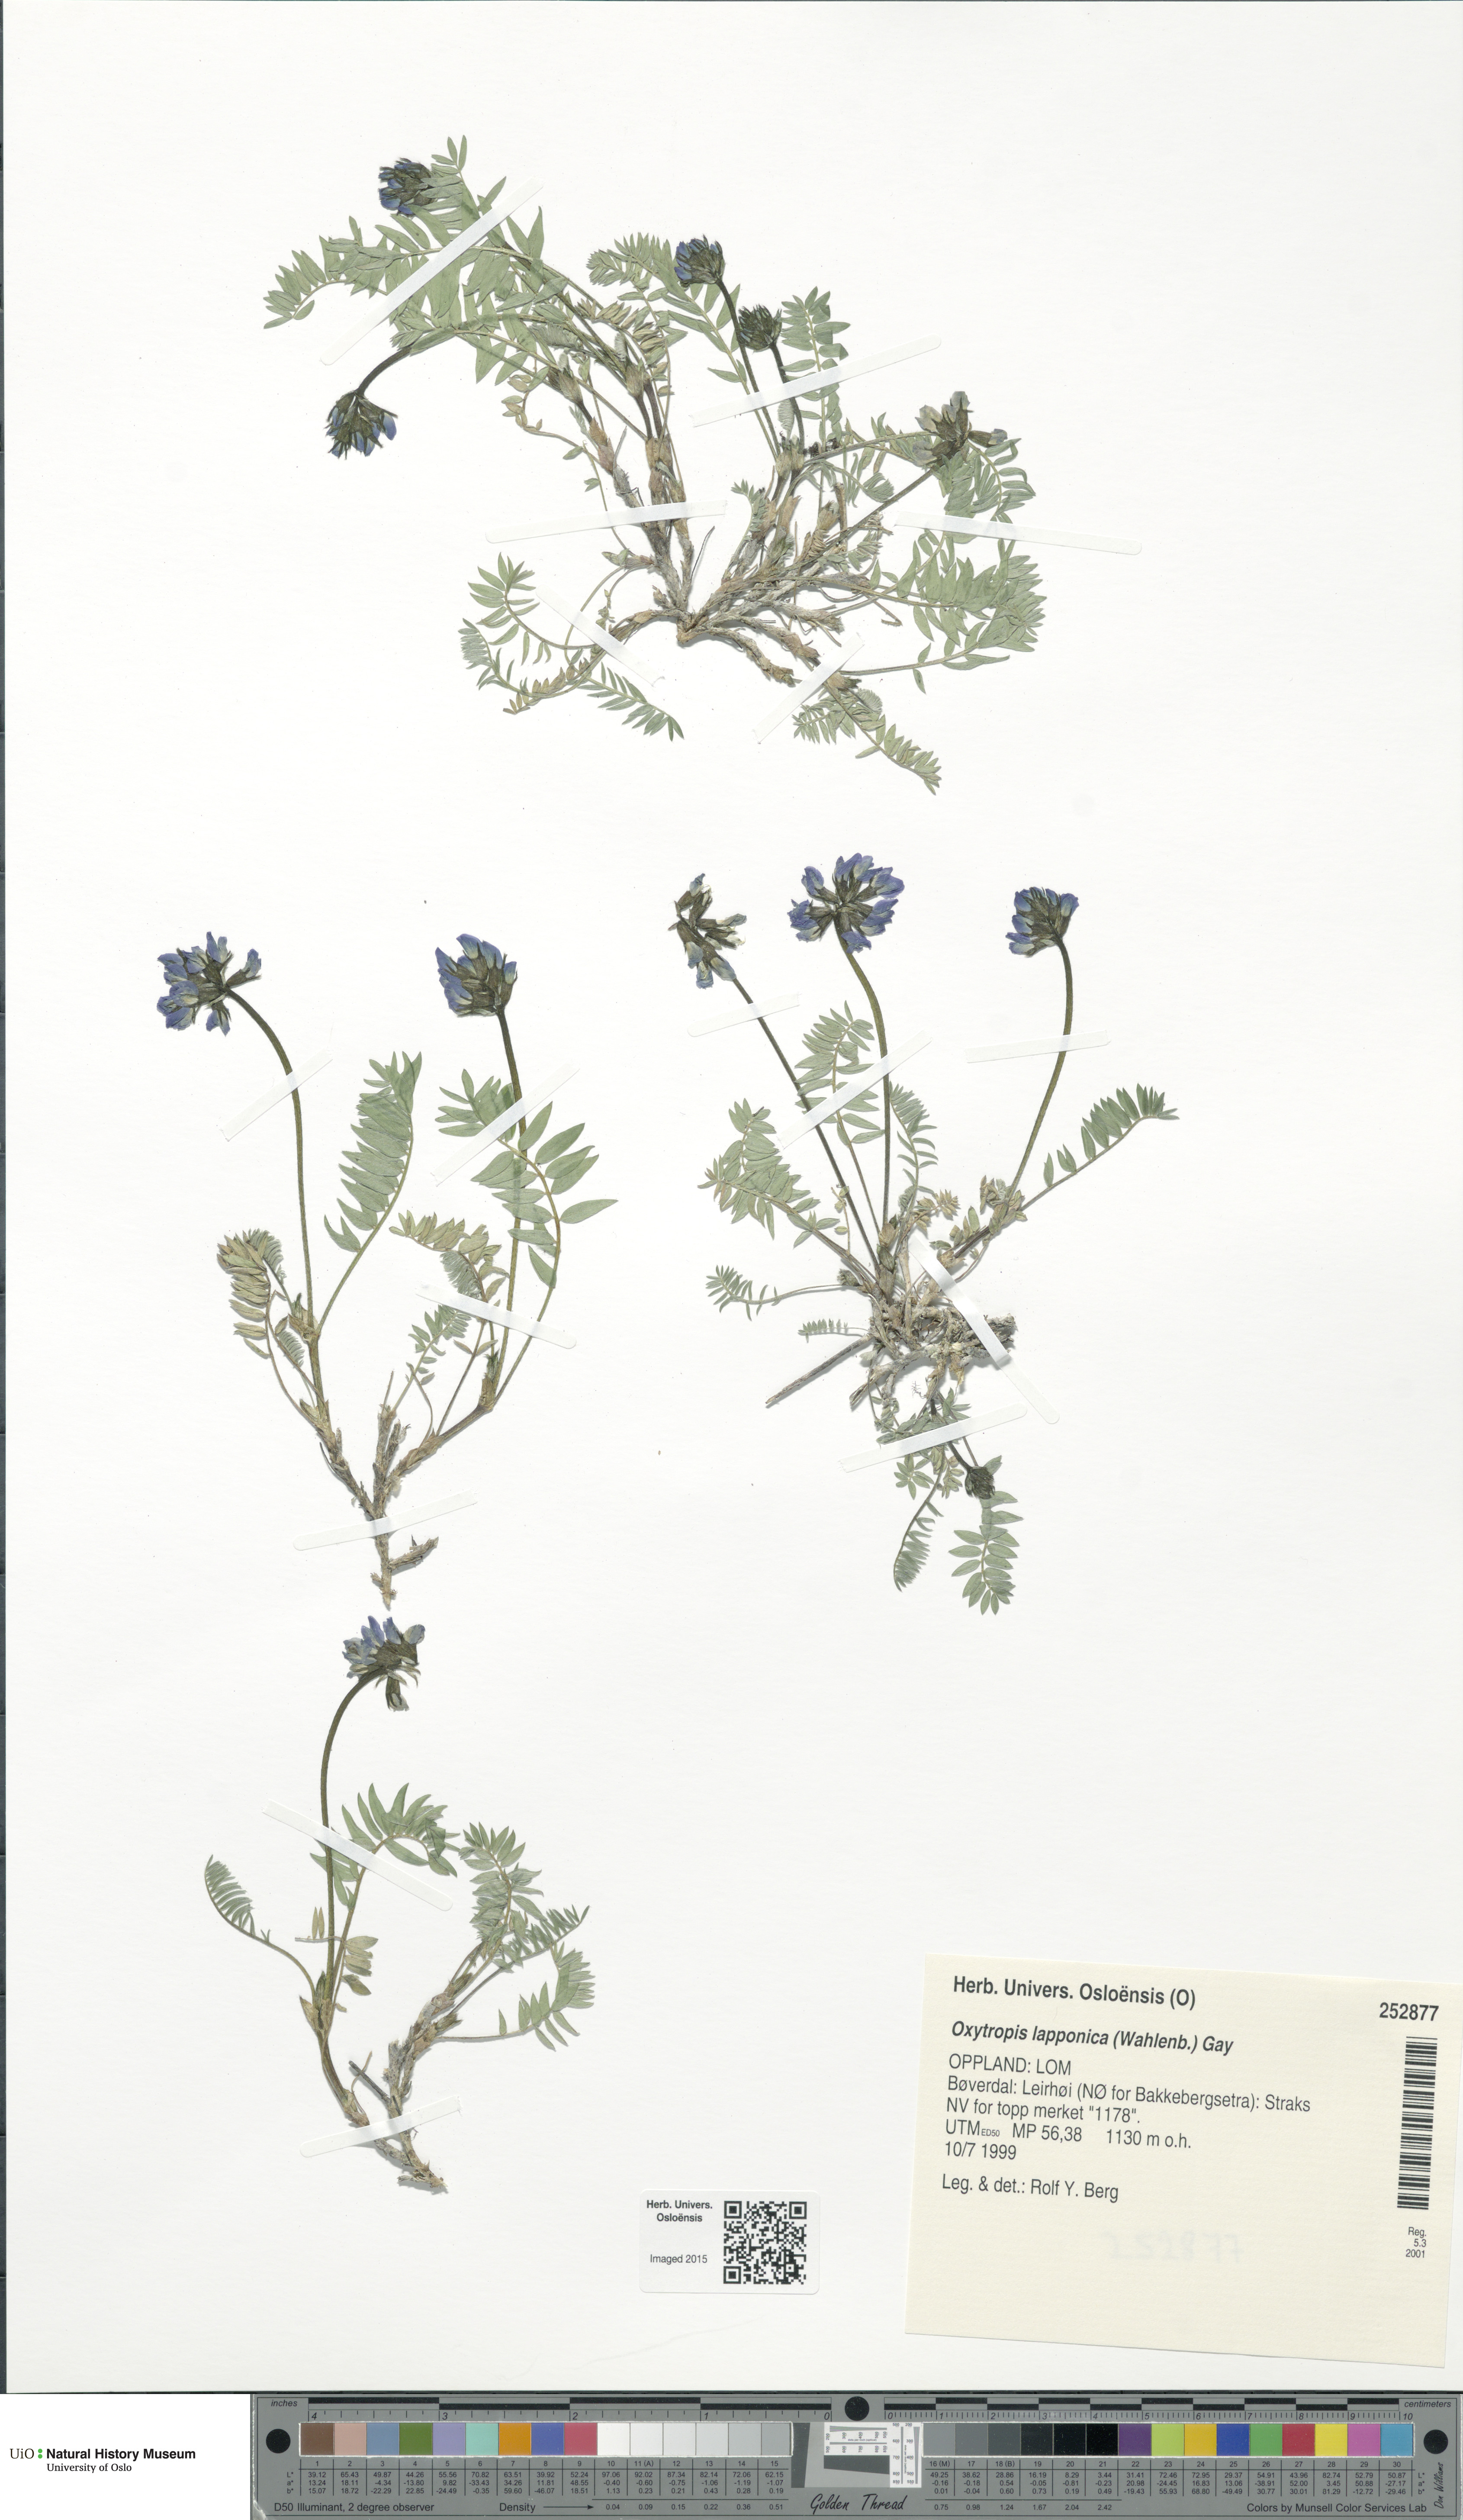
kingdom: Plantae
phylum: Tracheophyta
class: Magnoliopsida
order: Fabales
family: Fabaceae
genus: Oxytropis
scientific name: Oxytropis lapponica
